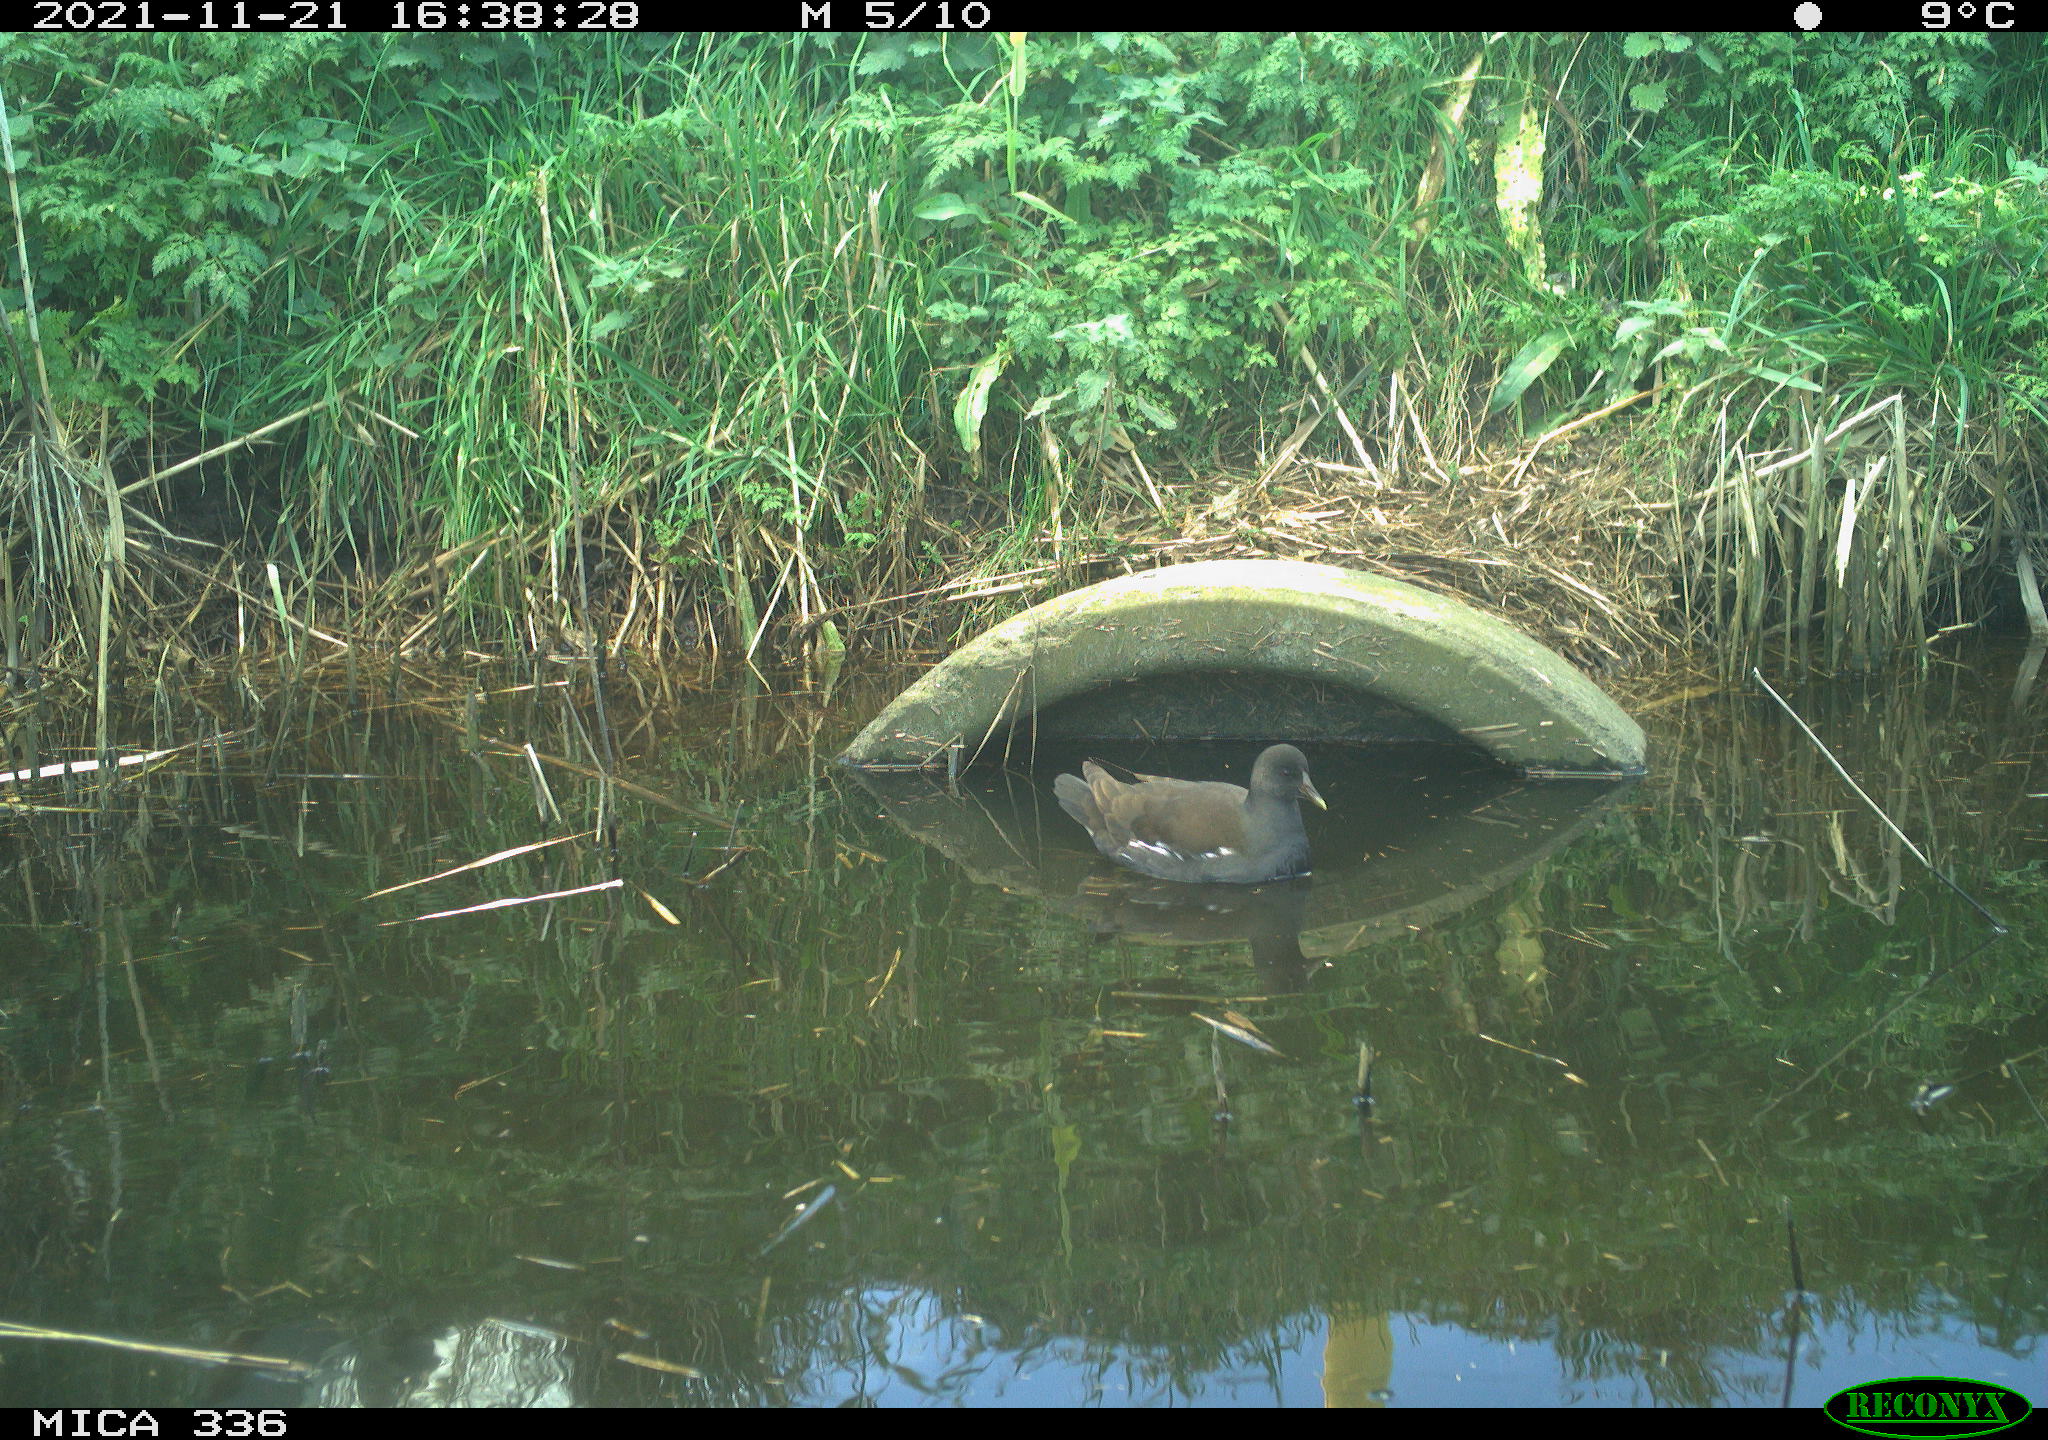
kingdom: Animalia
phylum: Chordata
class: Aves
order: Gruiformes
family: Rallidae
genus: Gallinula
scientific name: Gallinula chloropus
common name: Common moorhen
